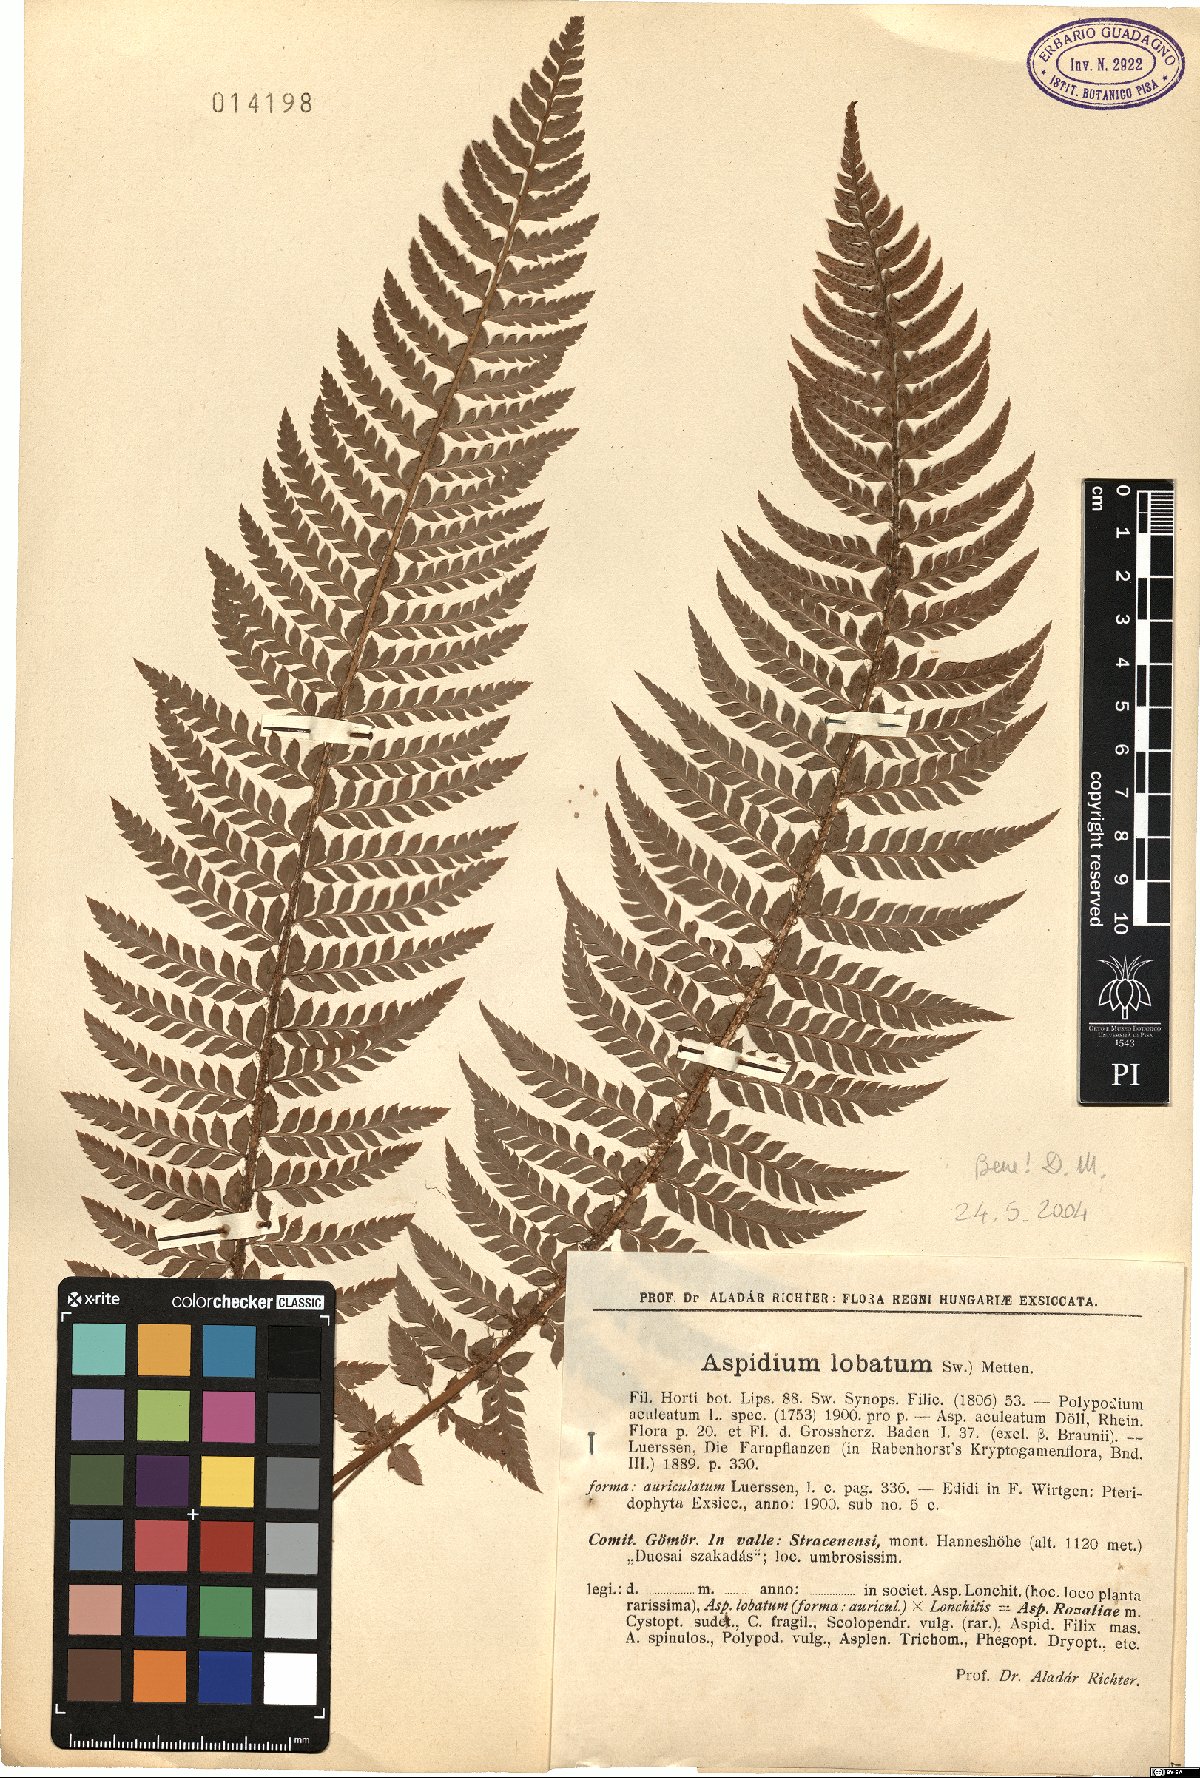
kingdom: Plantae
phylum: Tracheophyta
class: Polypodiopsida
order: Polypodiales
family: Dryopteridaceae
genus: Polystichum
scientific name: Polystichum aculeatum
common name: Hard shield-fern
